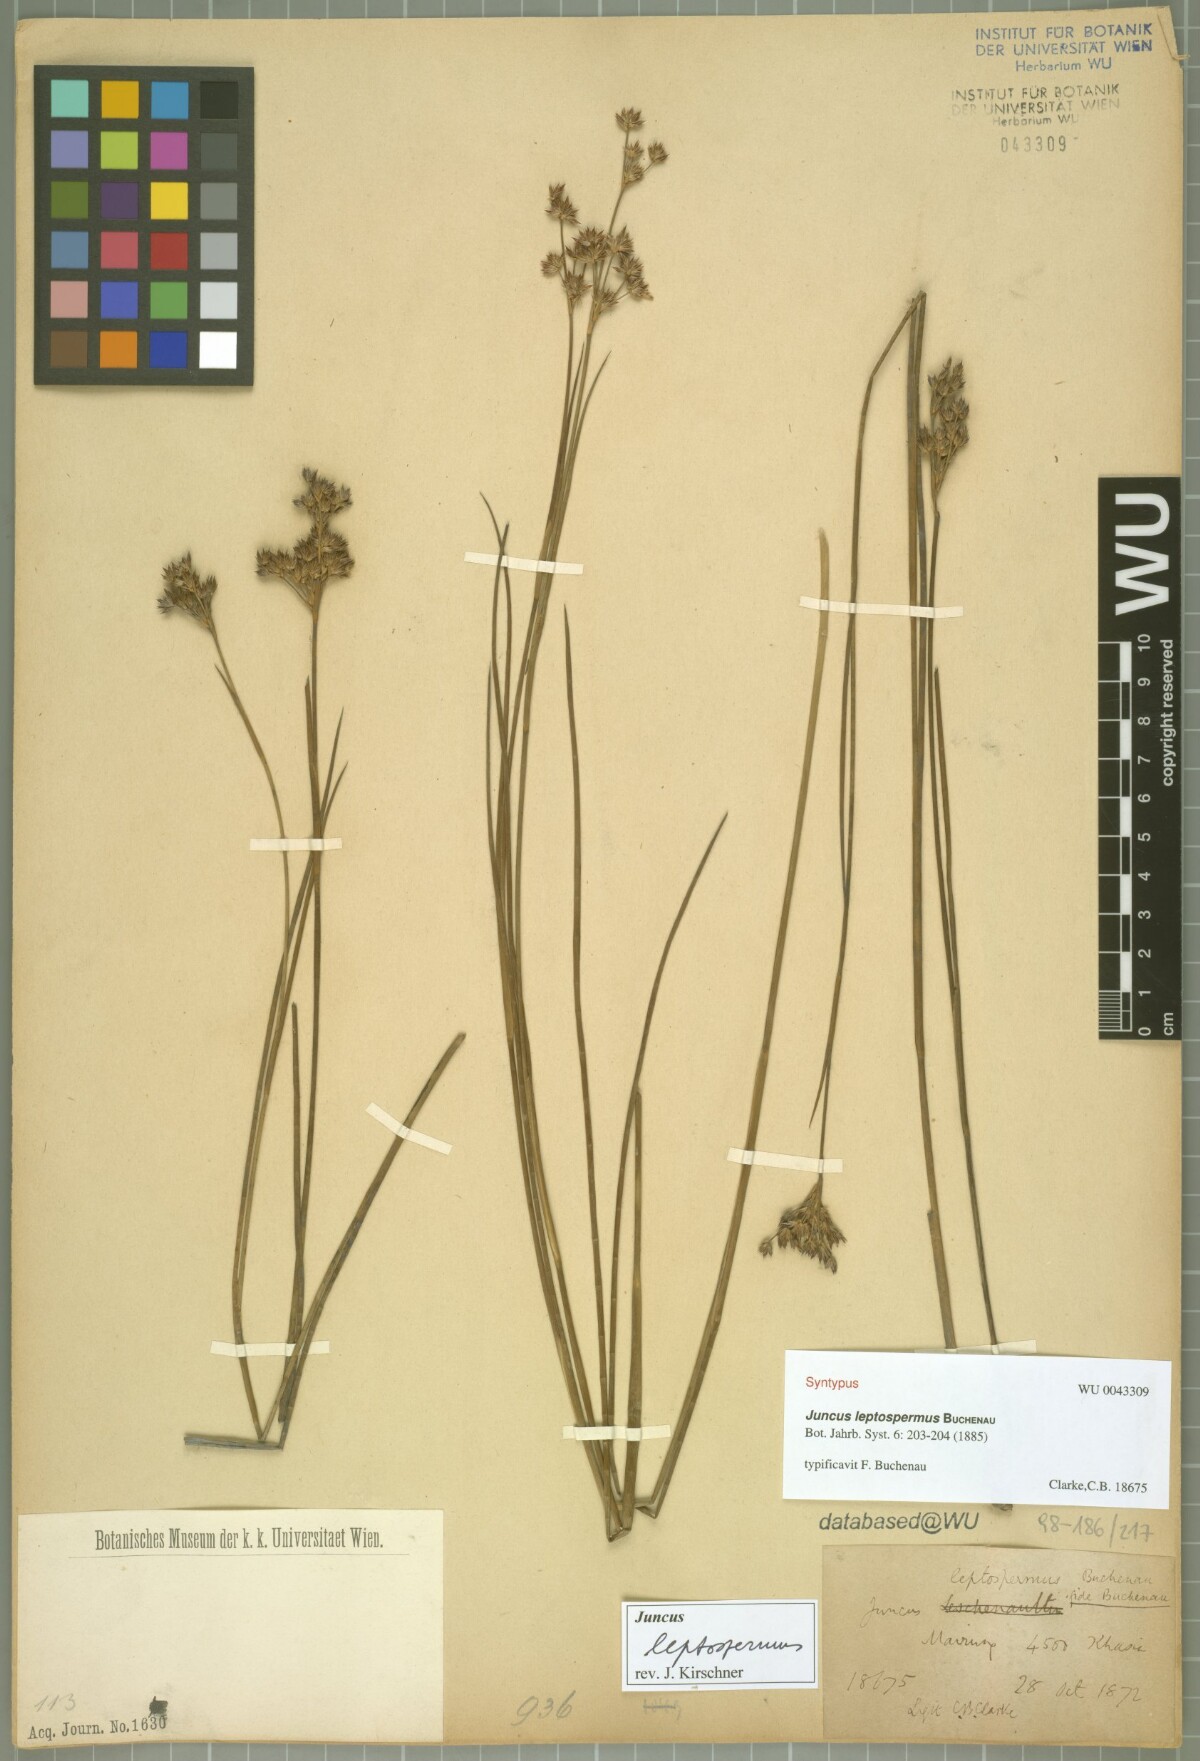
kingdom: Plantae
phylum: Tracheophyta
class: Liliopsida
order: Poales
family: Juncaceae
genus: Juncus
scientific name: Juncus leptospermus
